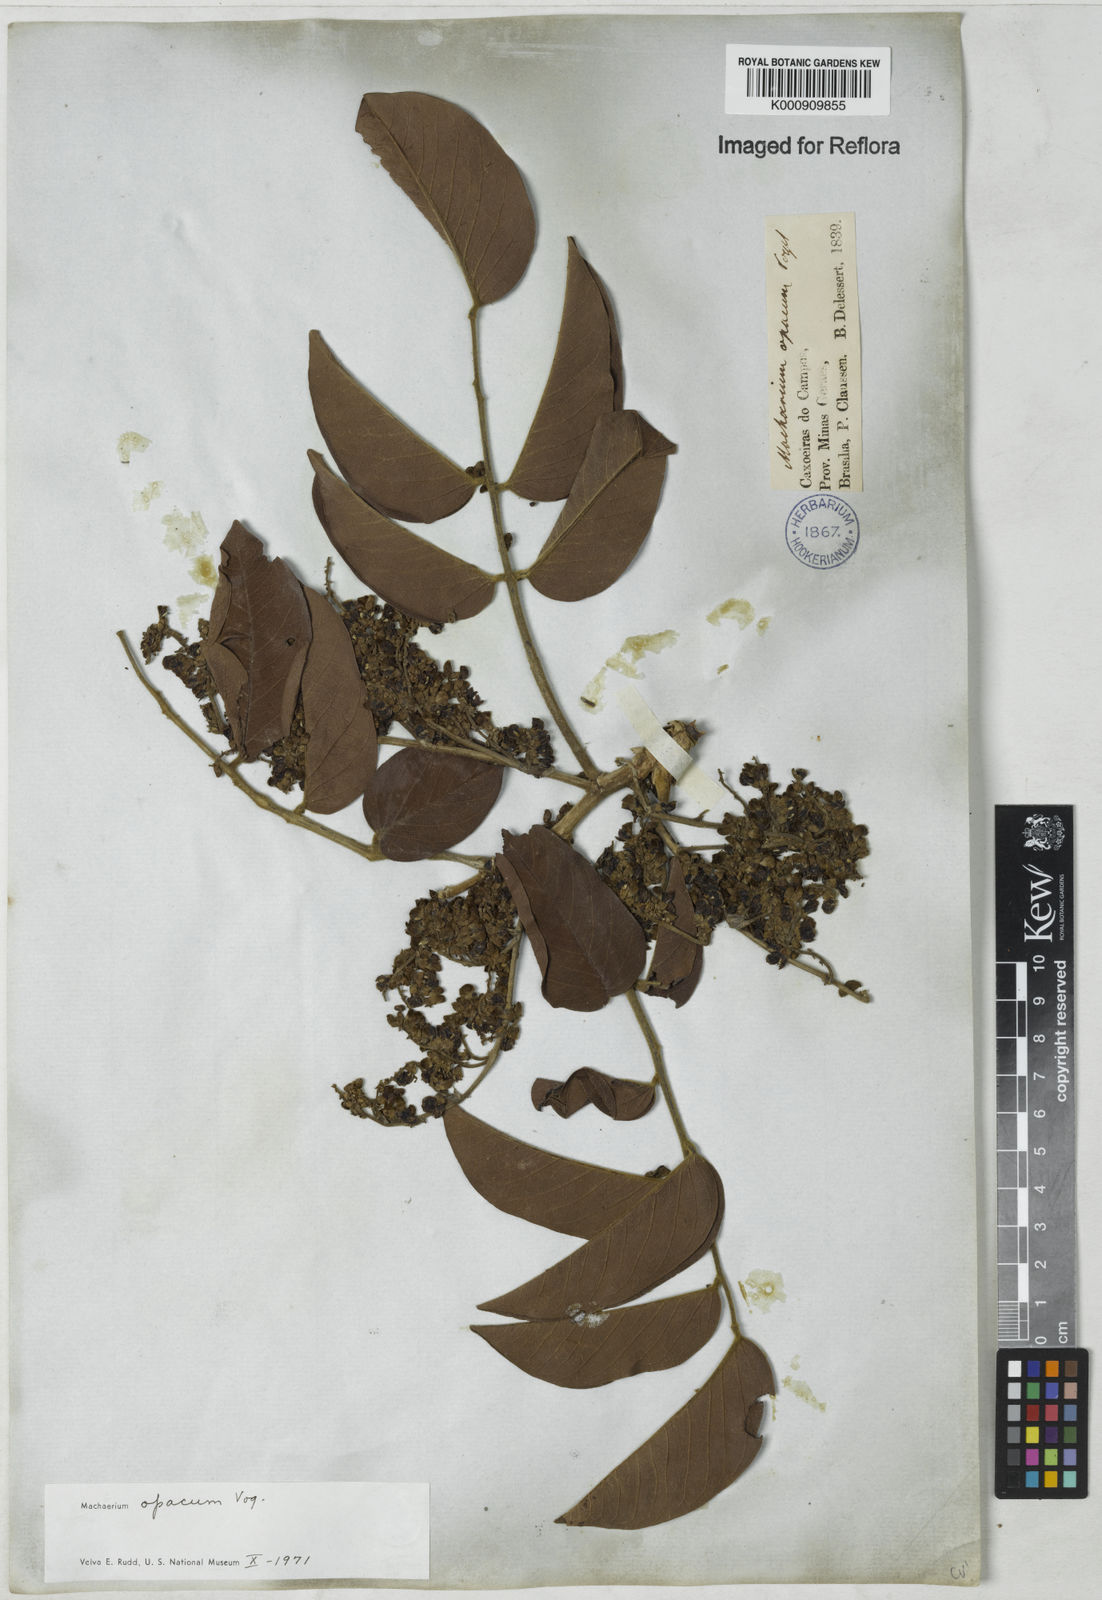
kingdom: Plantae
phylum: Tracheophyta
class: Magnoliopsida
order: Fabales
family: Fabaceae
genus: Machaerium
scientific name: Machaerium opacum
